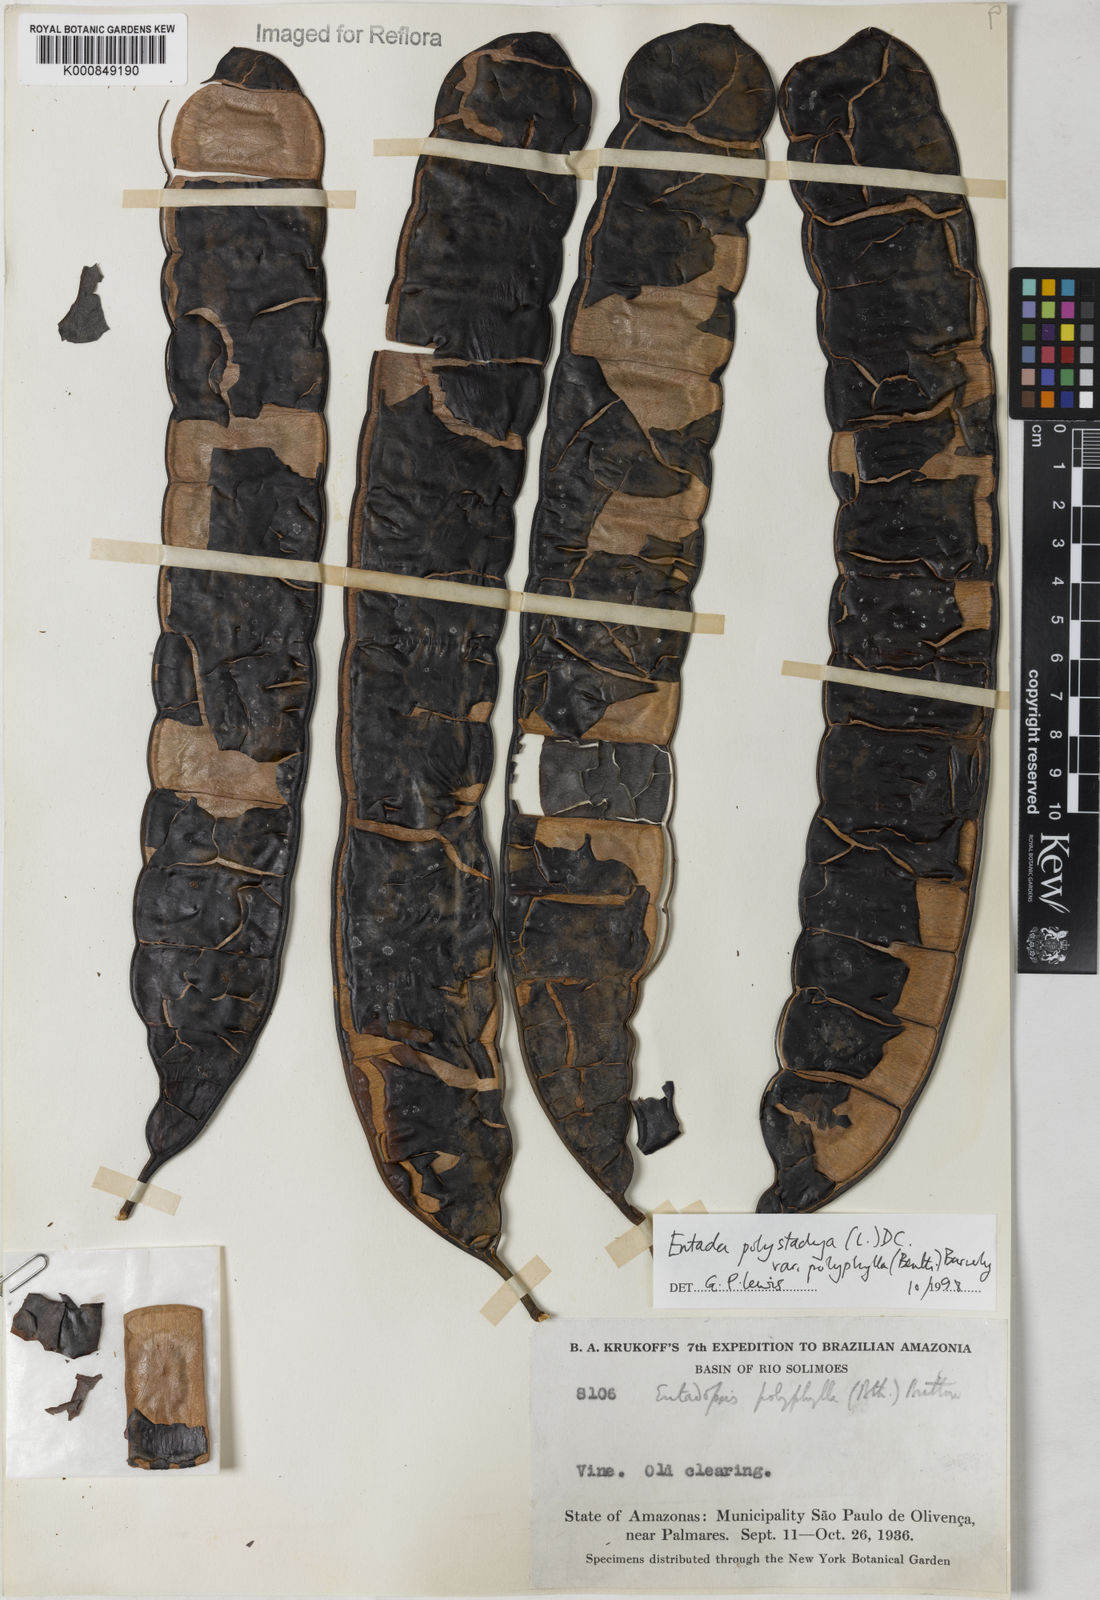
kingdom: Plantae
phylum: Tracheophyta
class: Magnoliopsida
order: Fabales
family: Fabaceae
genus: Entada
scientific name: Entada polyphylla
